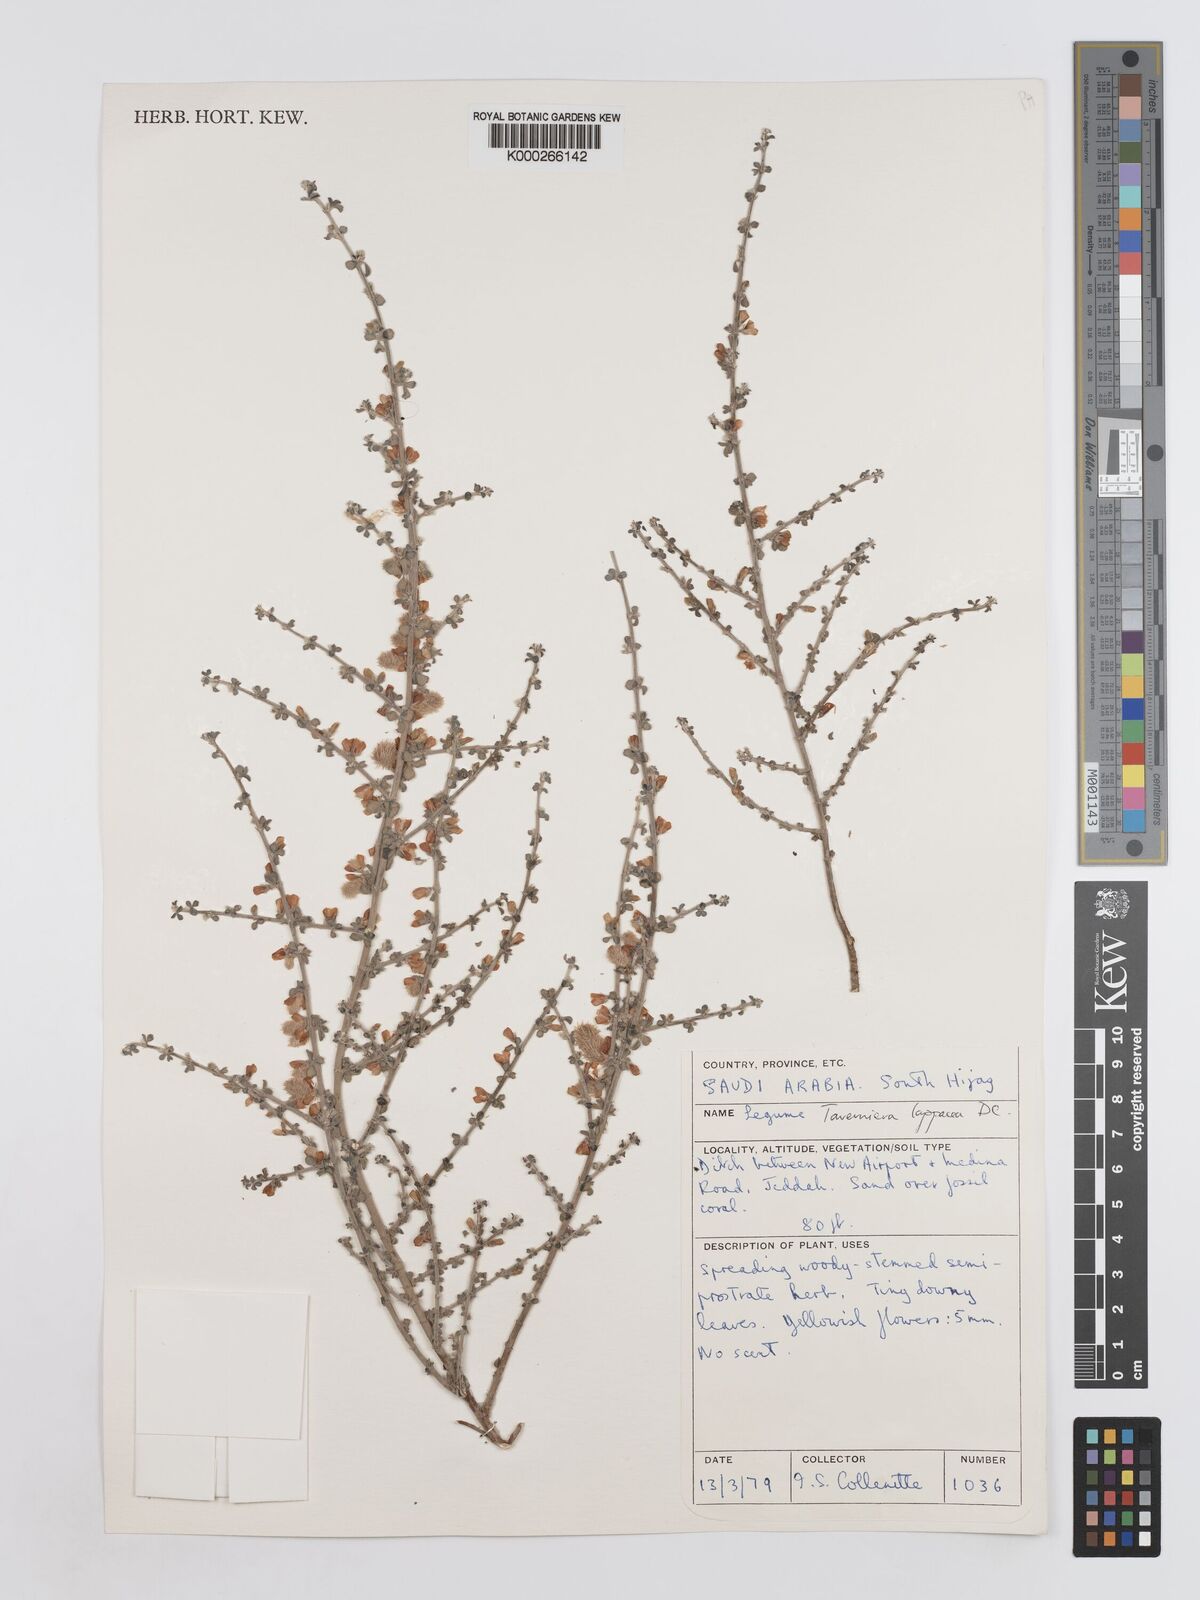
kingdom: Plantae
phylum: Tracheophyta
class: Magnoliopsida
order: Fabales
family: Fabaceae
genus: Taverniera
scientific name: Taverniera lappacea
